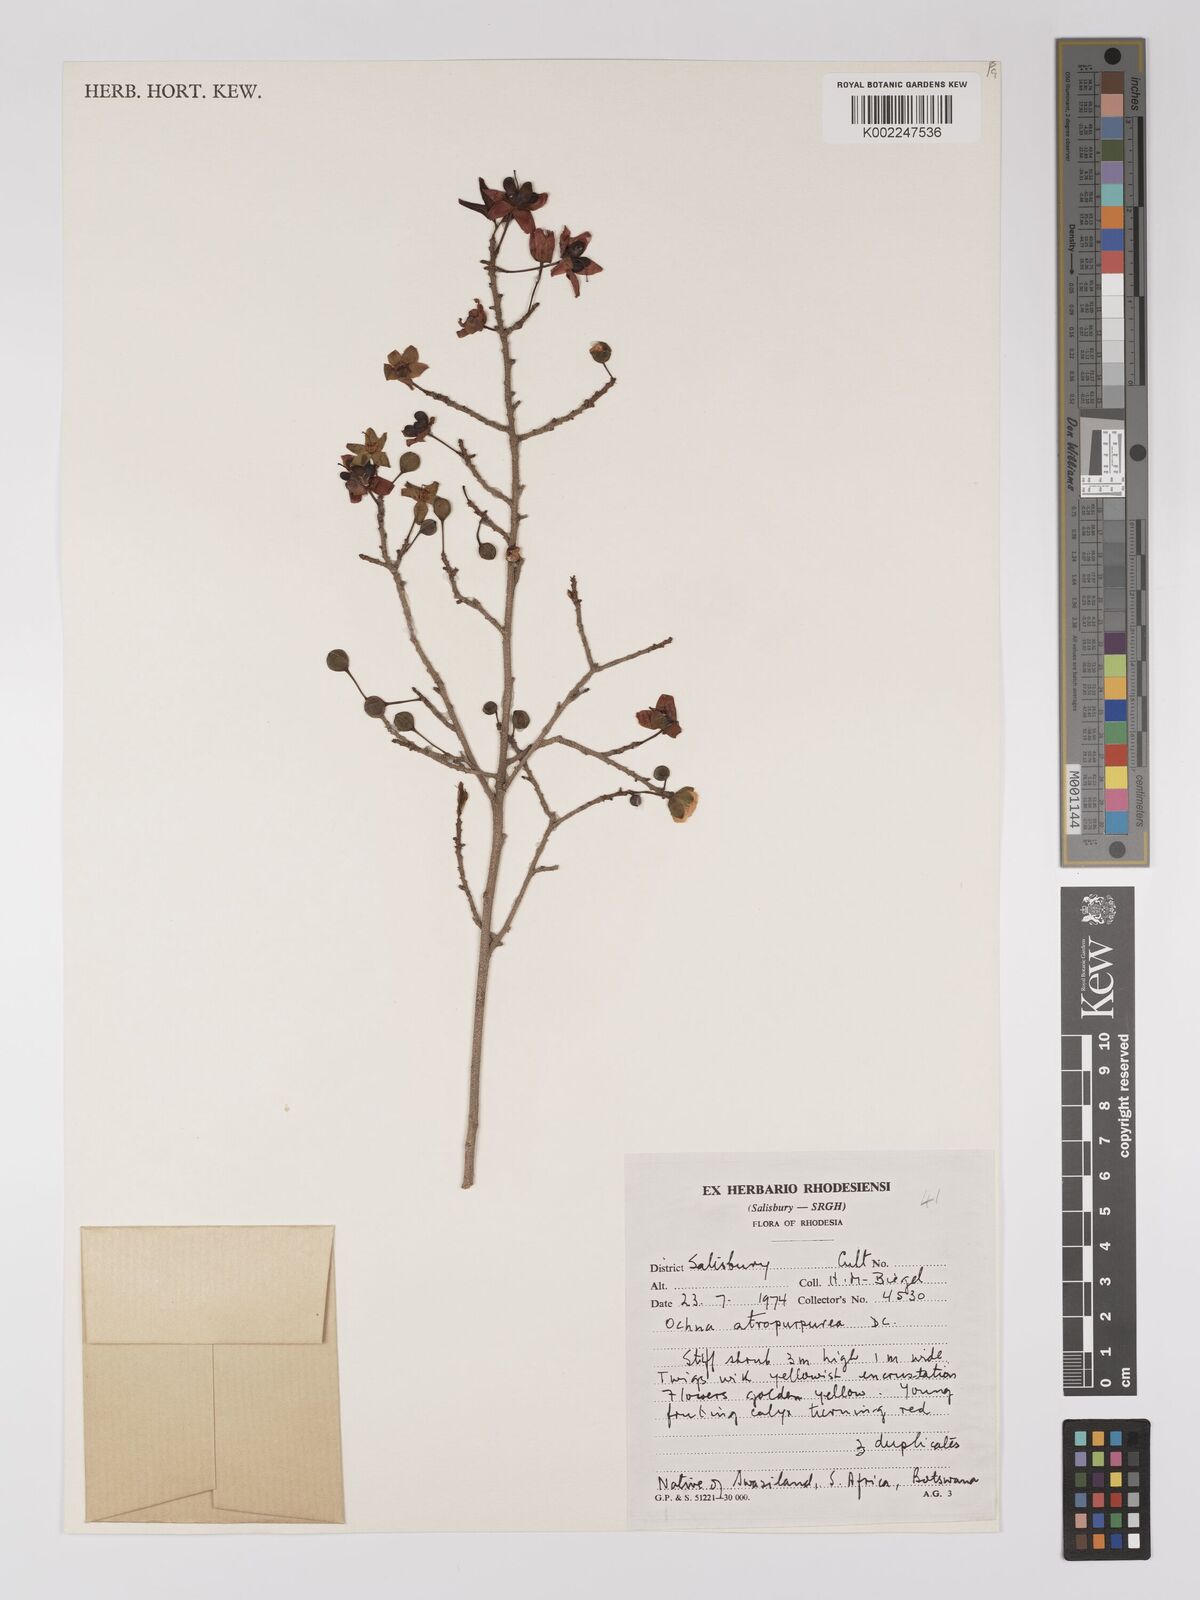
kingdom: Plantae
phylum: Tracheophyta
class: Magnoliopsida
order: Malpighiales
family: Ochnaceae
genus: Ochna
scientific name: Ochna atropurpurea
